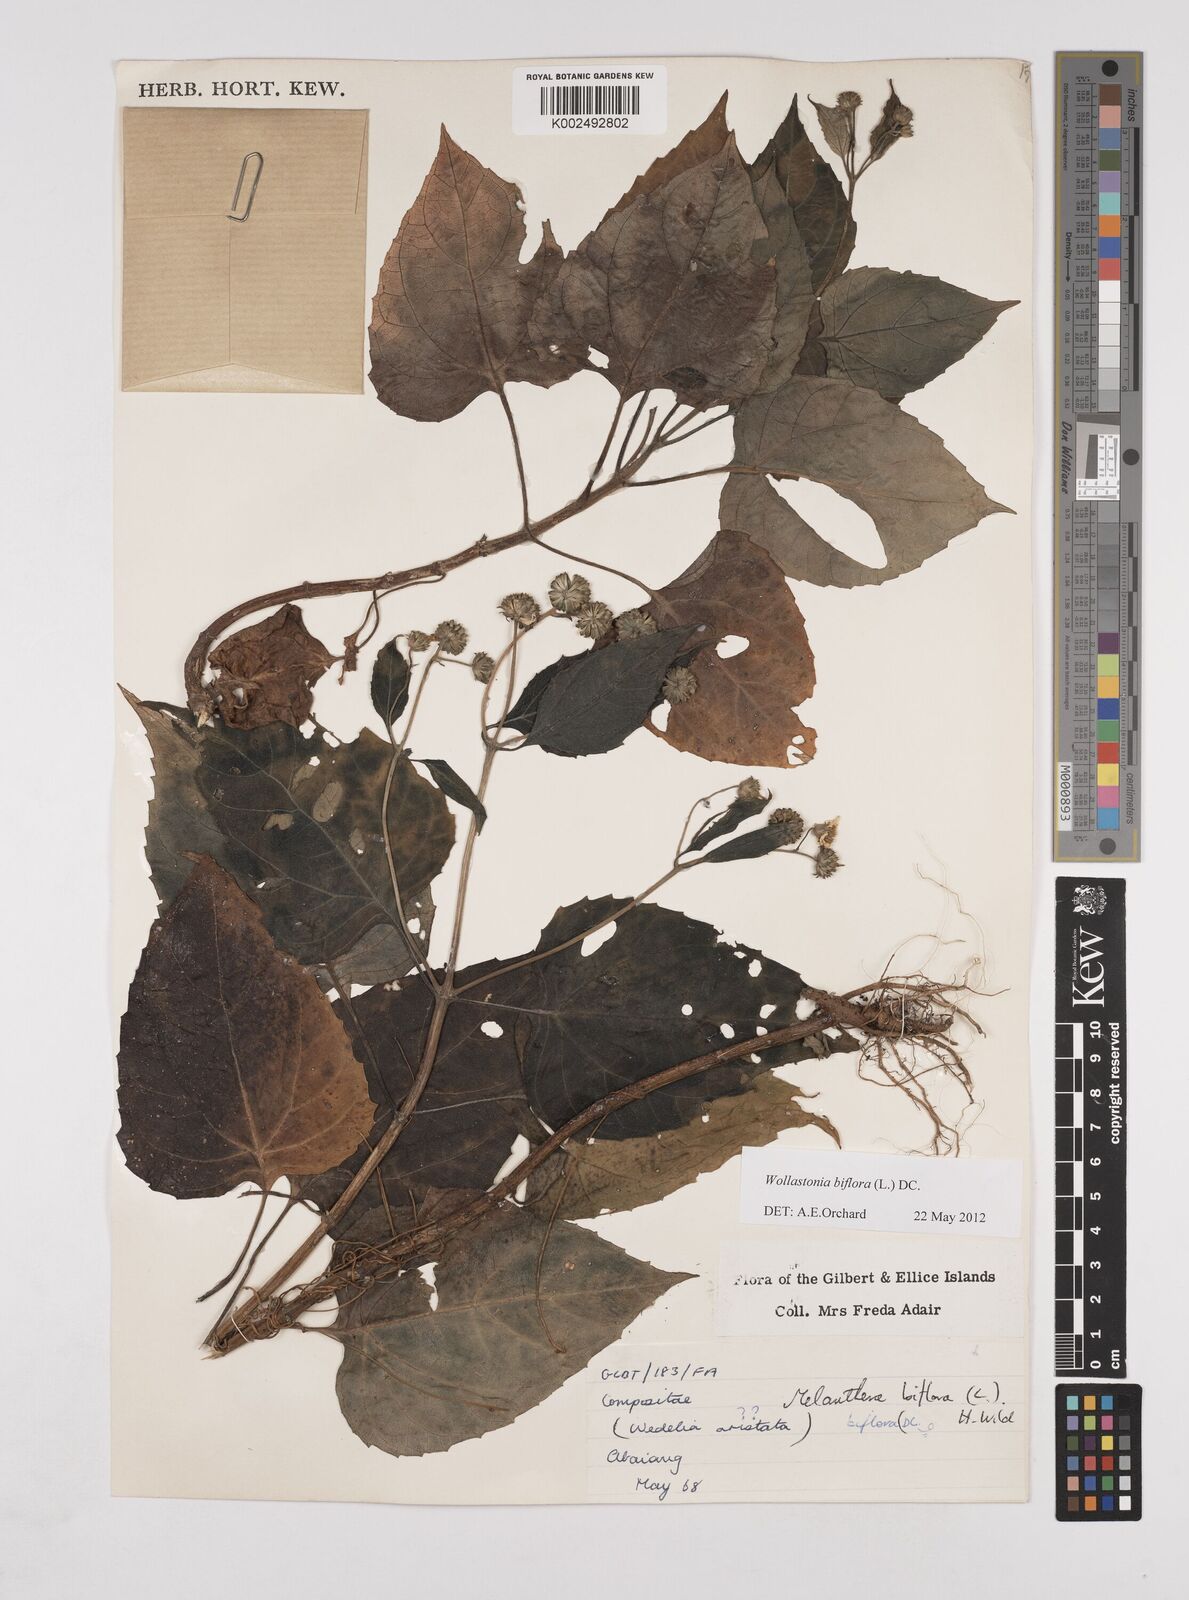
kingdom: Plantae
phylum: Tracheophyta
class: Magnoliopsida
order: Asterales
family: Asteraceae
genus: Wollastonia
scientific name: Wollastonia biflora
